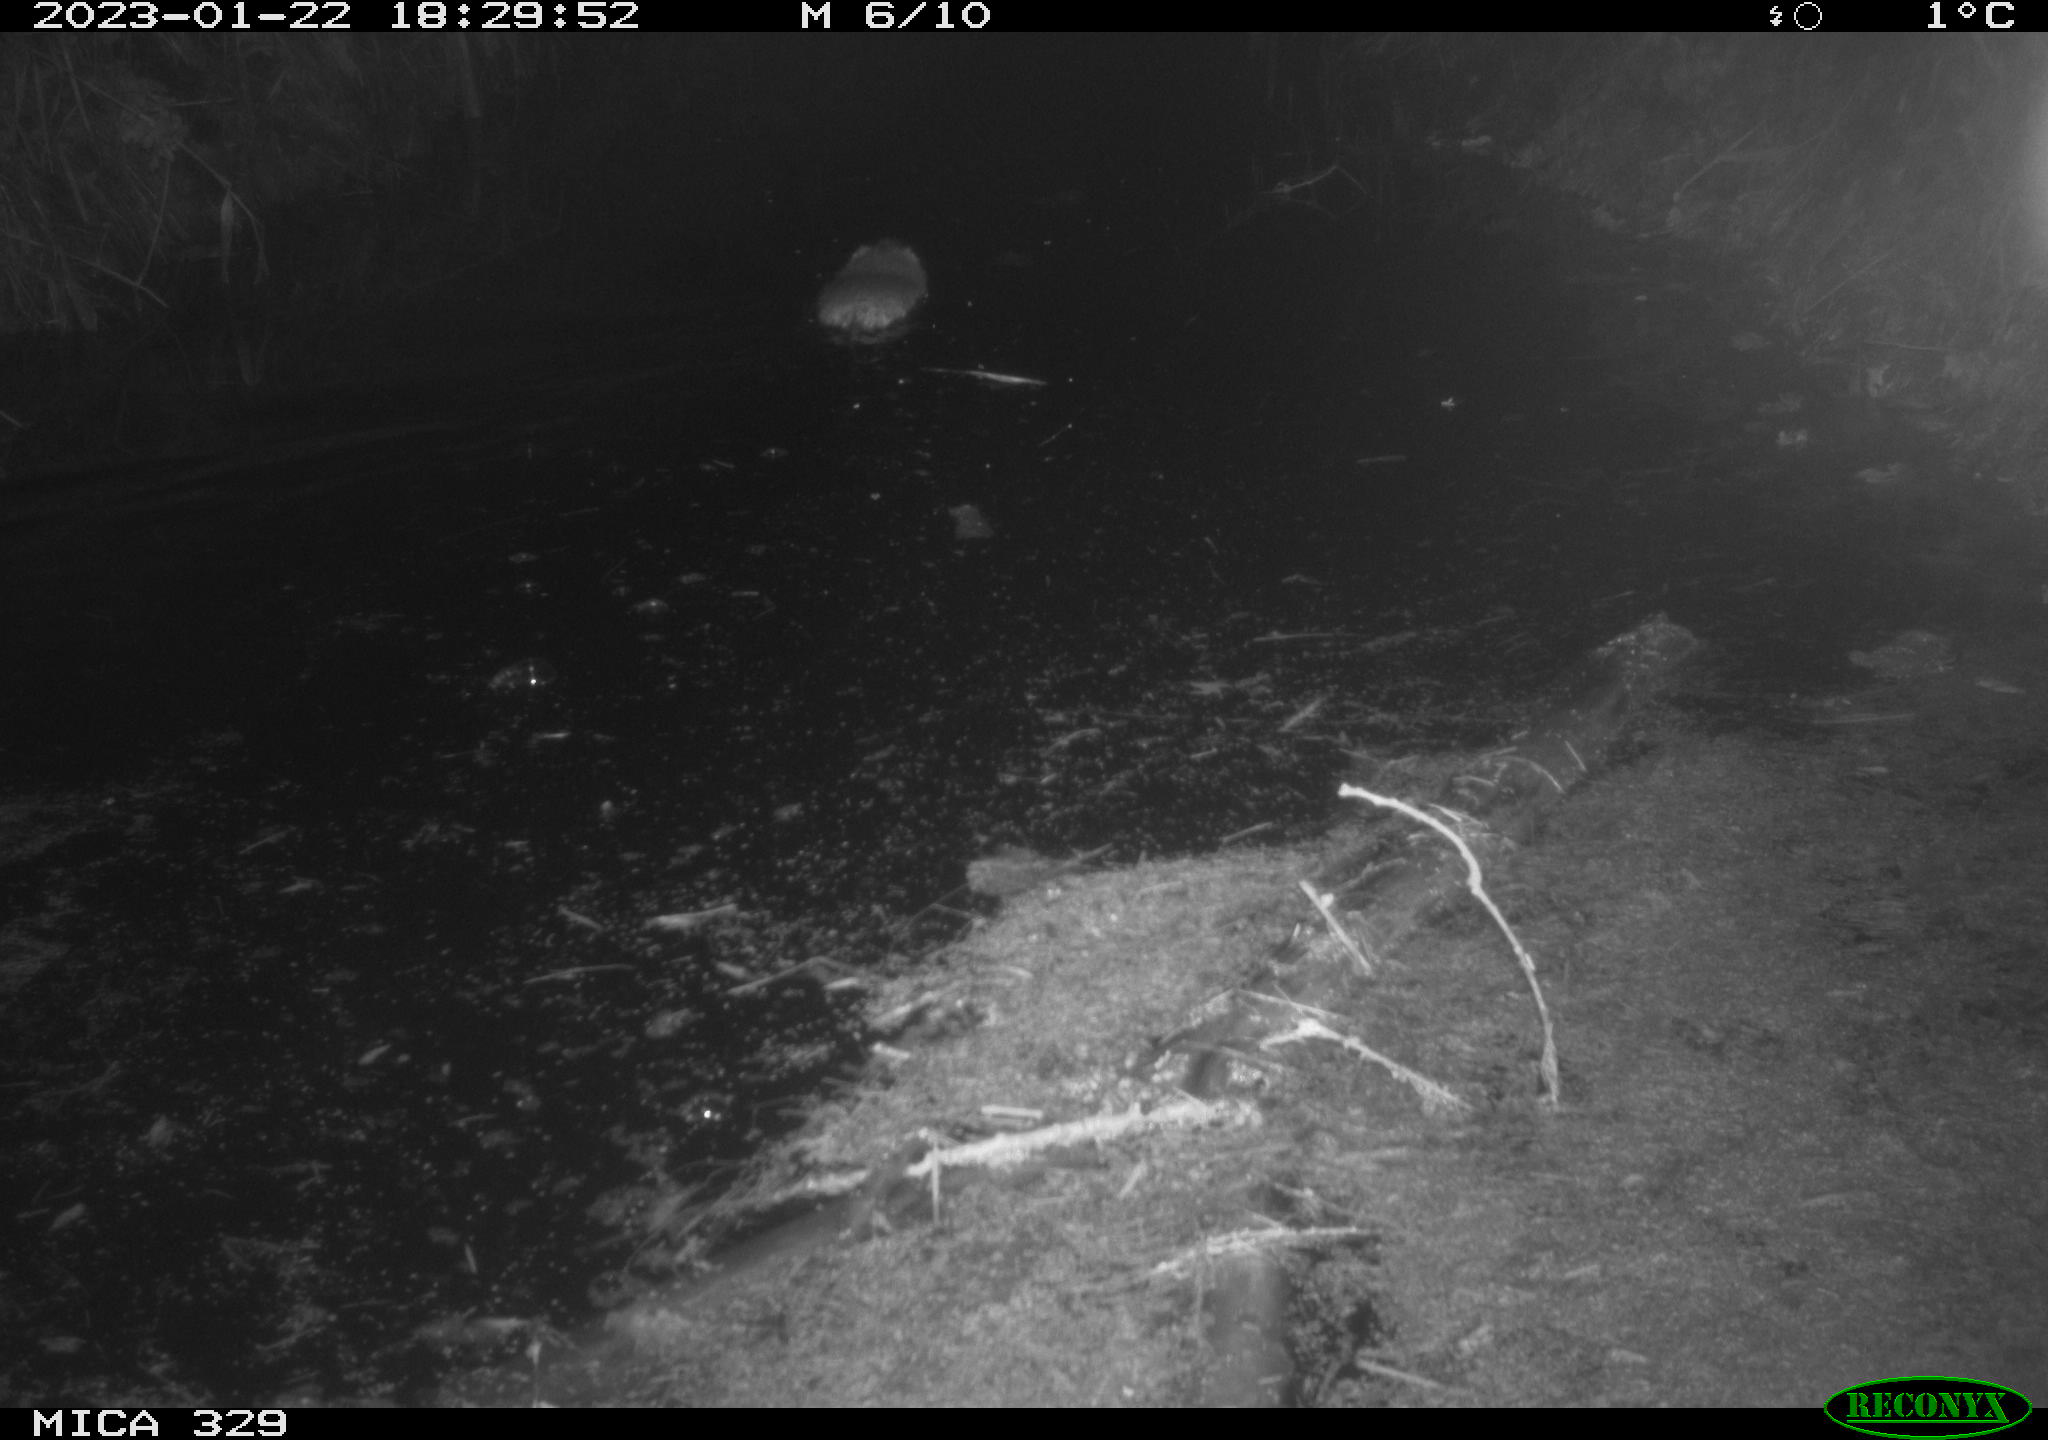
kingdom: Animalia
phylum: Chordata
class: Mammalia
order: Rodentia
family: Cricetidae
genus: Ondatra
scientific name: Ondatra zibethicus
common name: Muskrat
